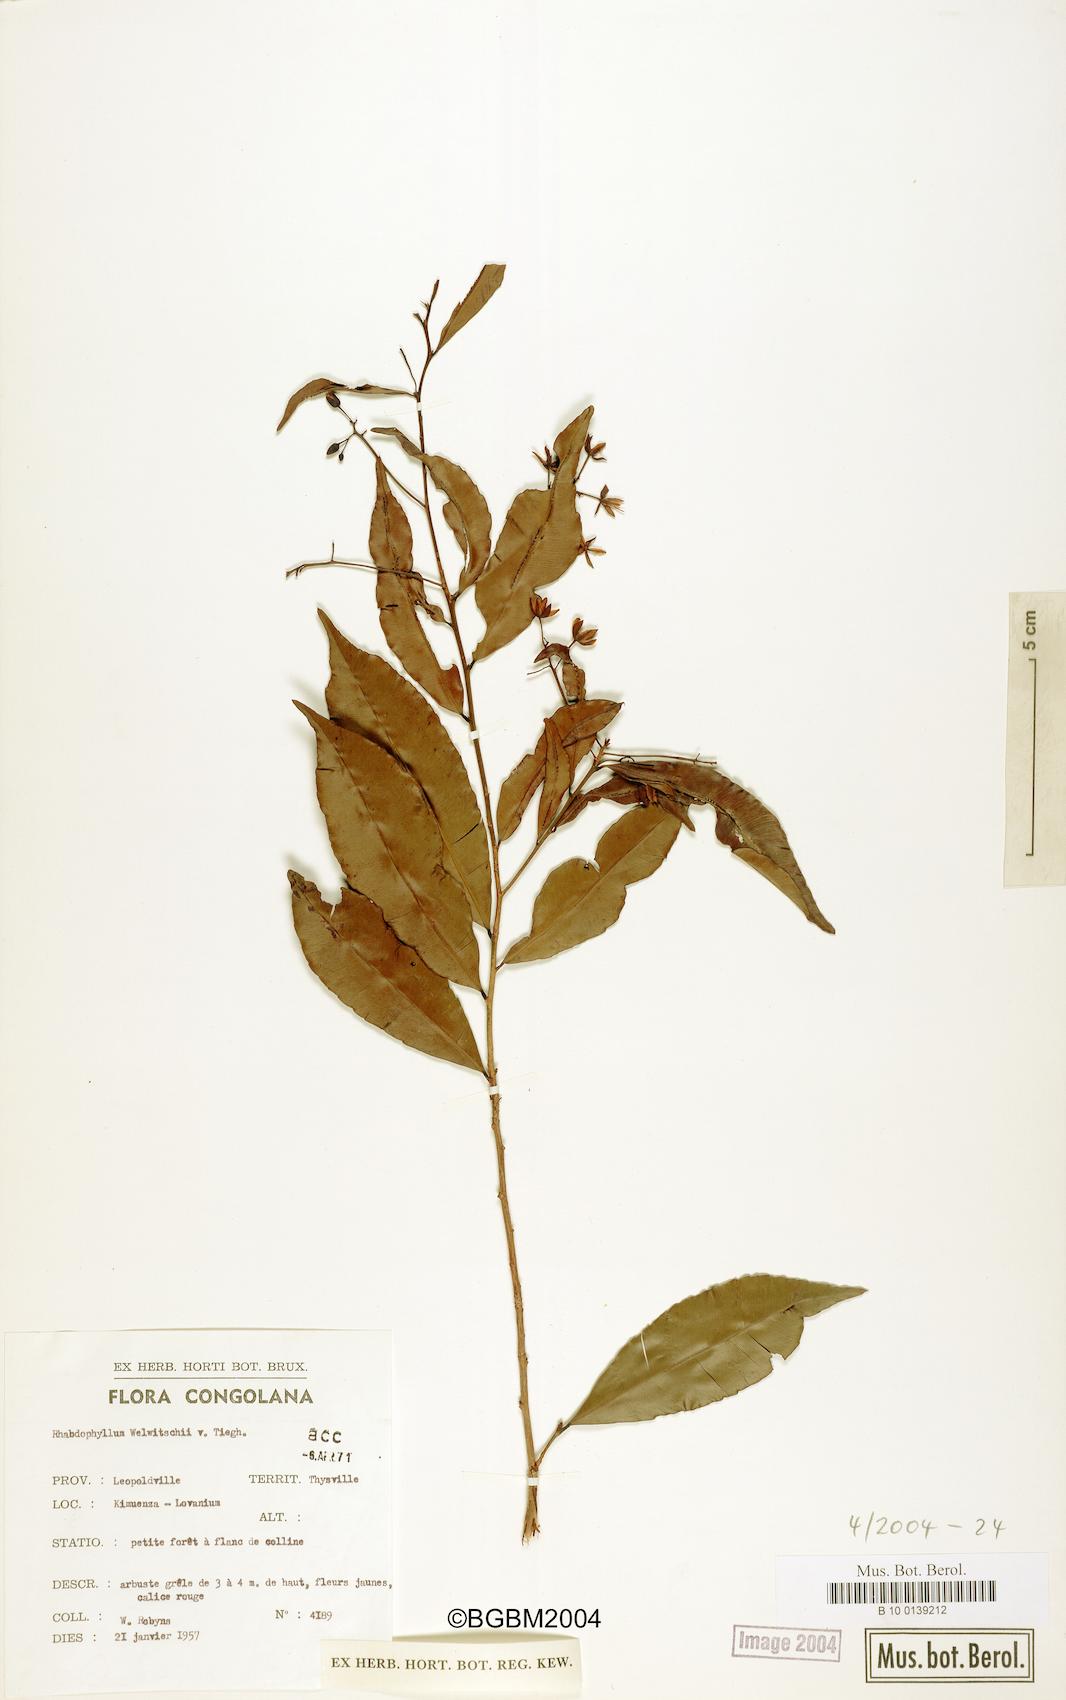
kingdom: Plantae
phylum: Tracheophyta
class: Magnoliopsida
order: Malpighiales
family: Ochnaceae
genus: Rhabdophyllum
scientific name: Rhabdophyllum welwitschii
